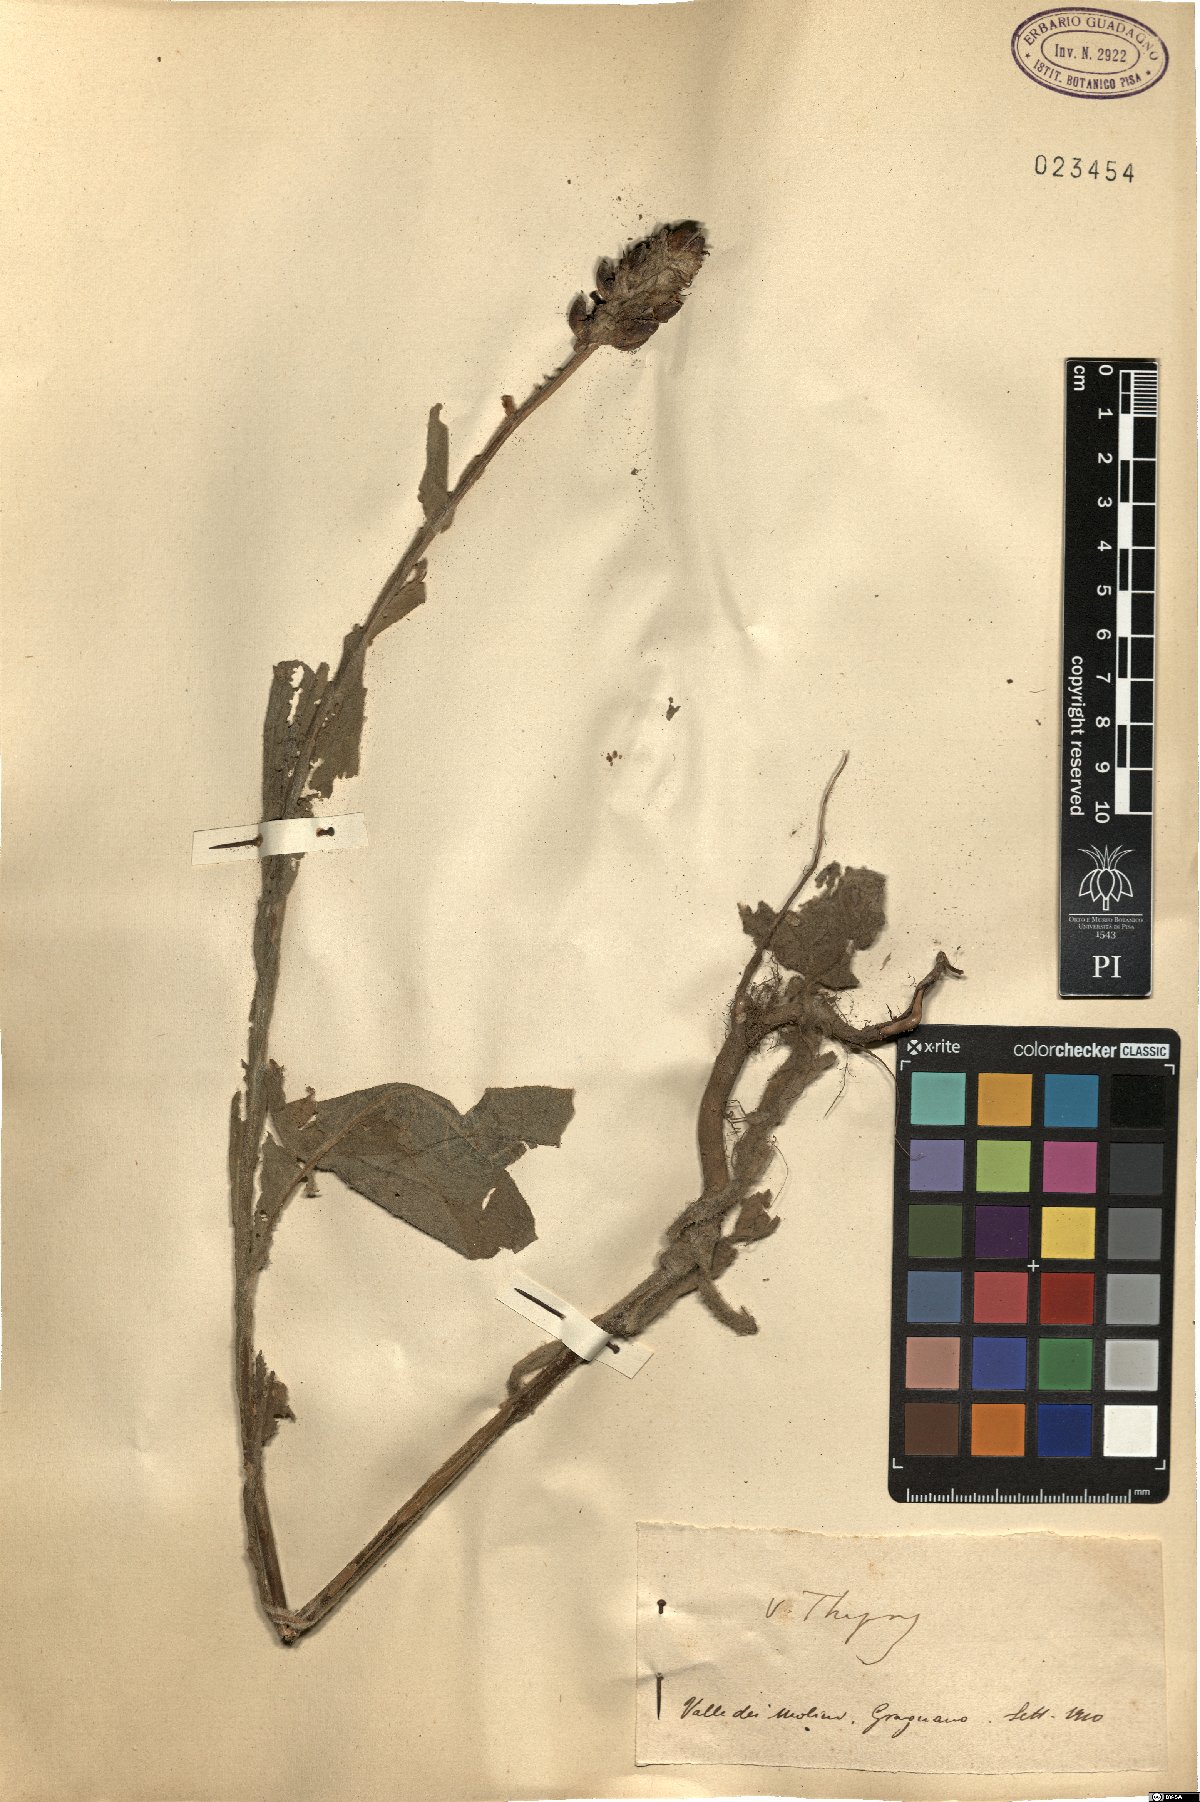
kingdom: Plantae
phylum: Tracheophyta
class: Magnoliopsida
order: Lamiales
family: Scrophulariaceae
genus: Verbascum
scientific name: Verbascum thapsus
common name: Common mullein
